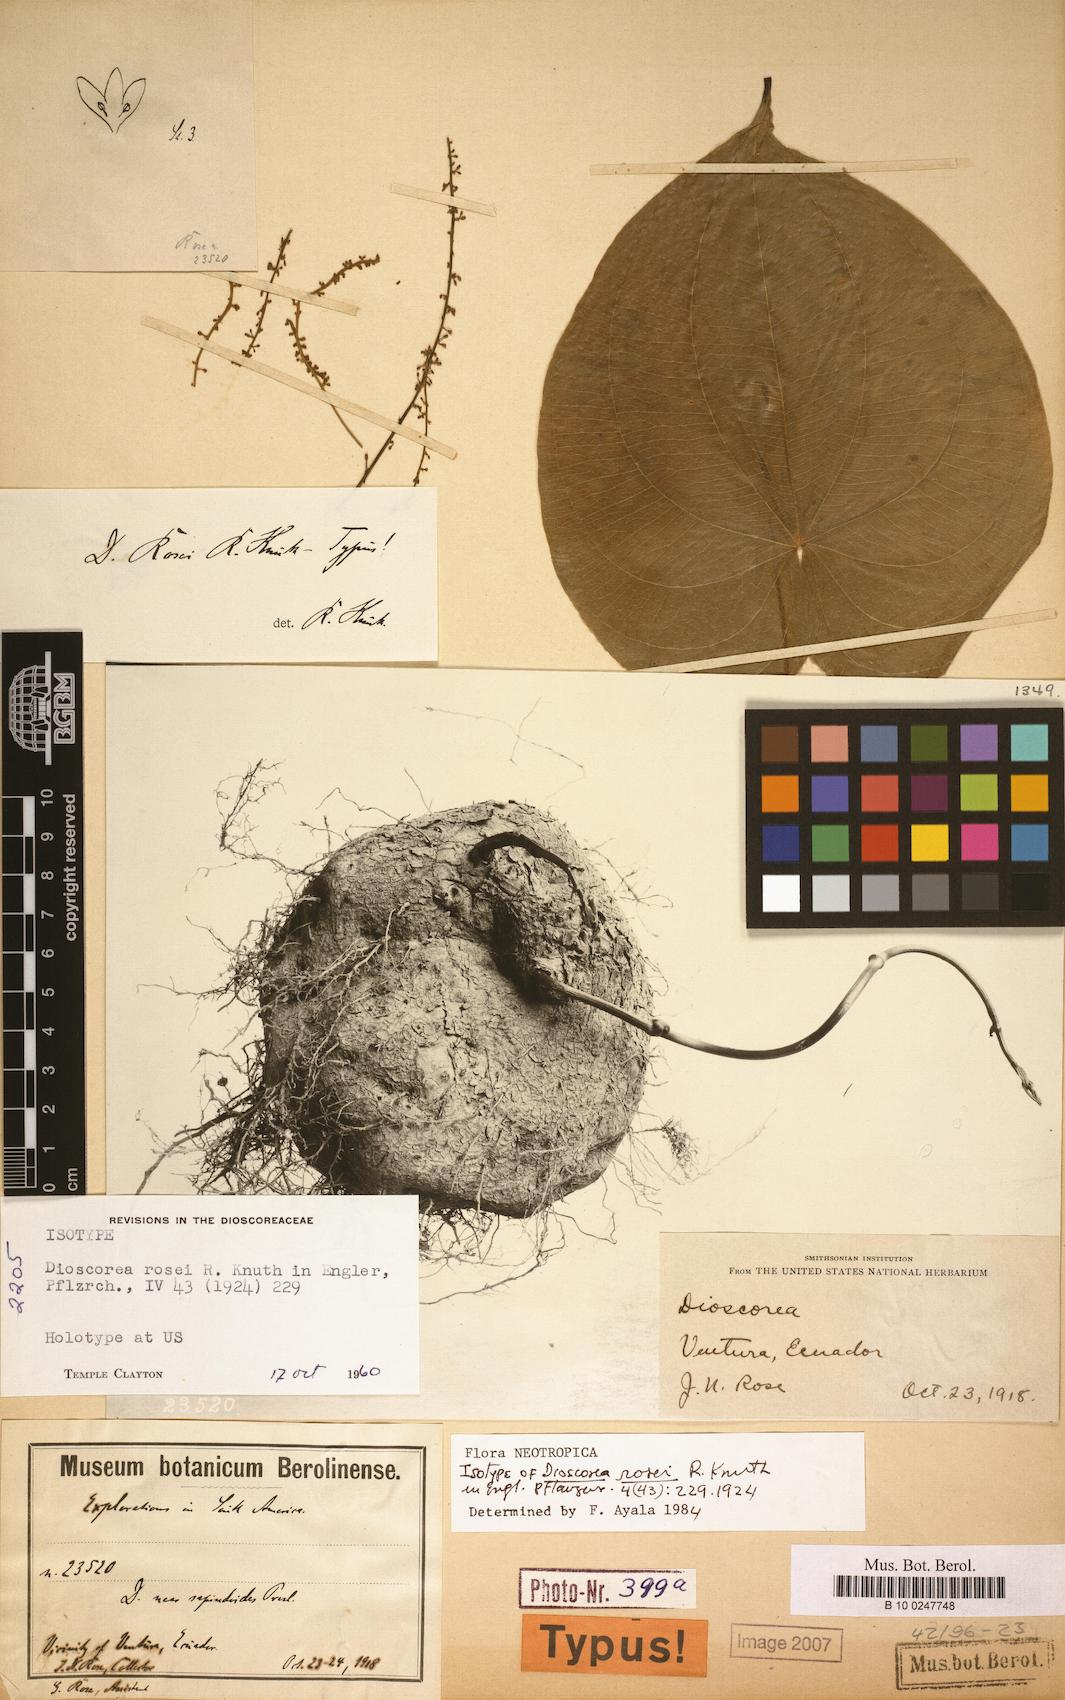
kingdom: Plantae
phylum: Tracheophyta
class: Liliopsida
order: Dioscoreales
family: Dioscoreaceae
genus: Dioscorea
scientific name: Dioscorea rosei
